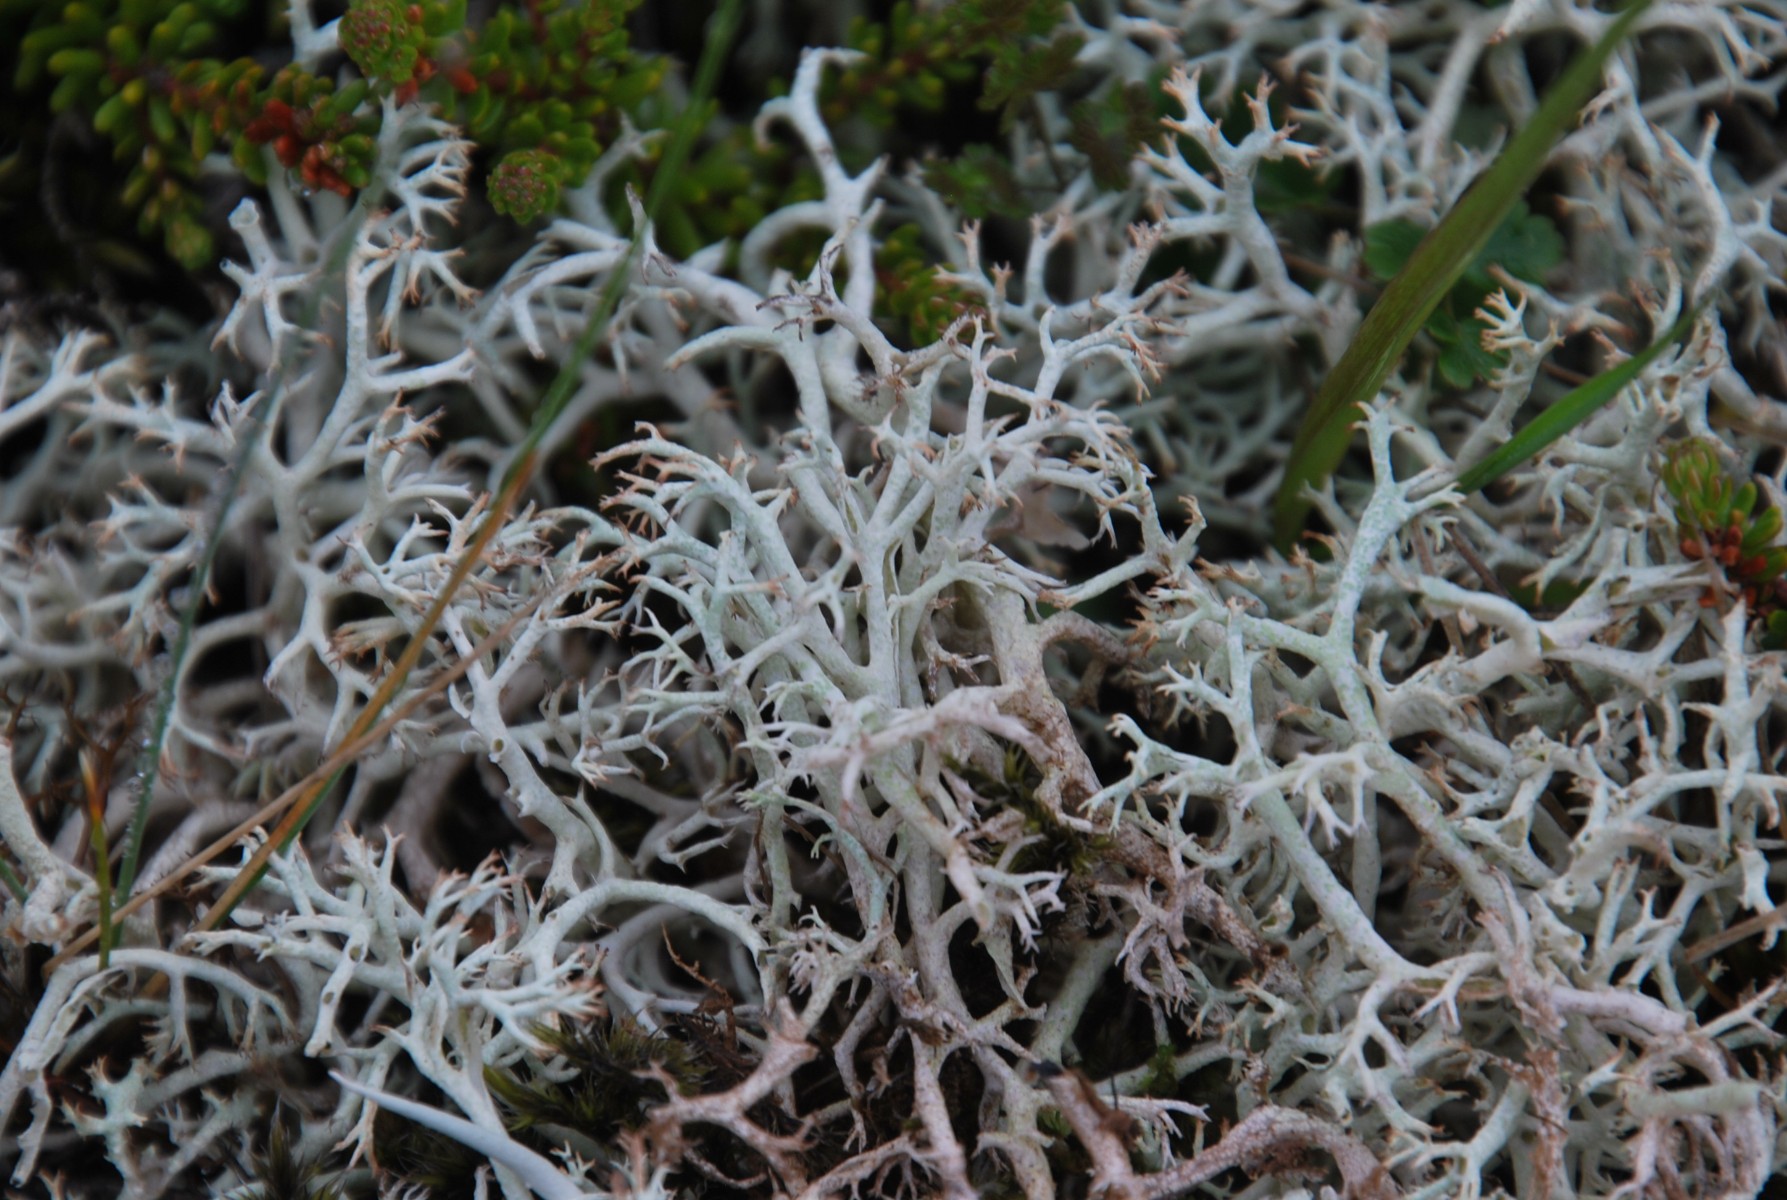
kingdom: Fungi
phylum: Ascomycota
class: Lecanoromycetes
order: Lecanorales
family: Cladoniaceae
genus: Cladonia
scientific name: Cladonia portentosa
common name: hede-rensdyrlav
